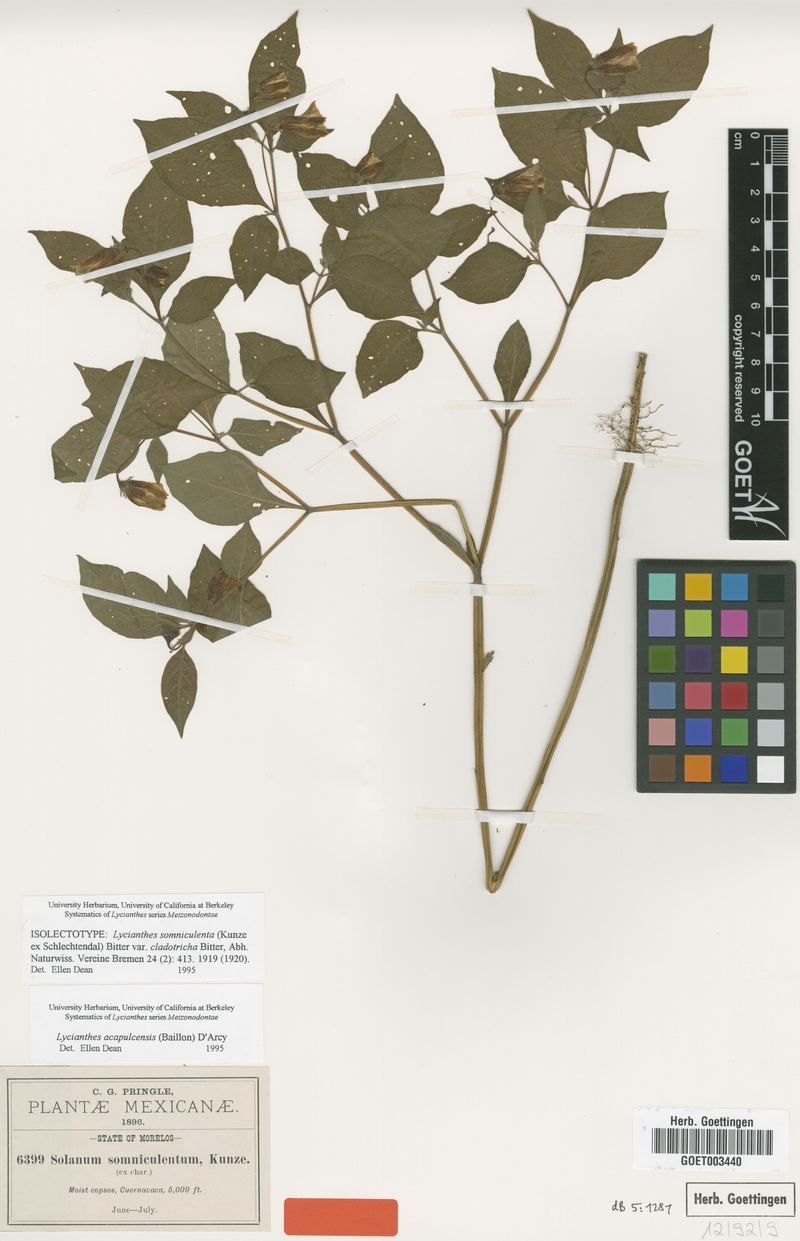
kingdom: Plantae
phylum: Tracheophyta
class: Magnoliopsida
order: Solanales
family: Solanaceae
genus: Lycianthes
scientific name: Lycianthes acapulcensis
